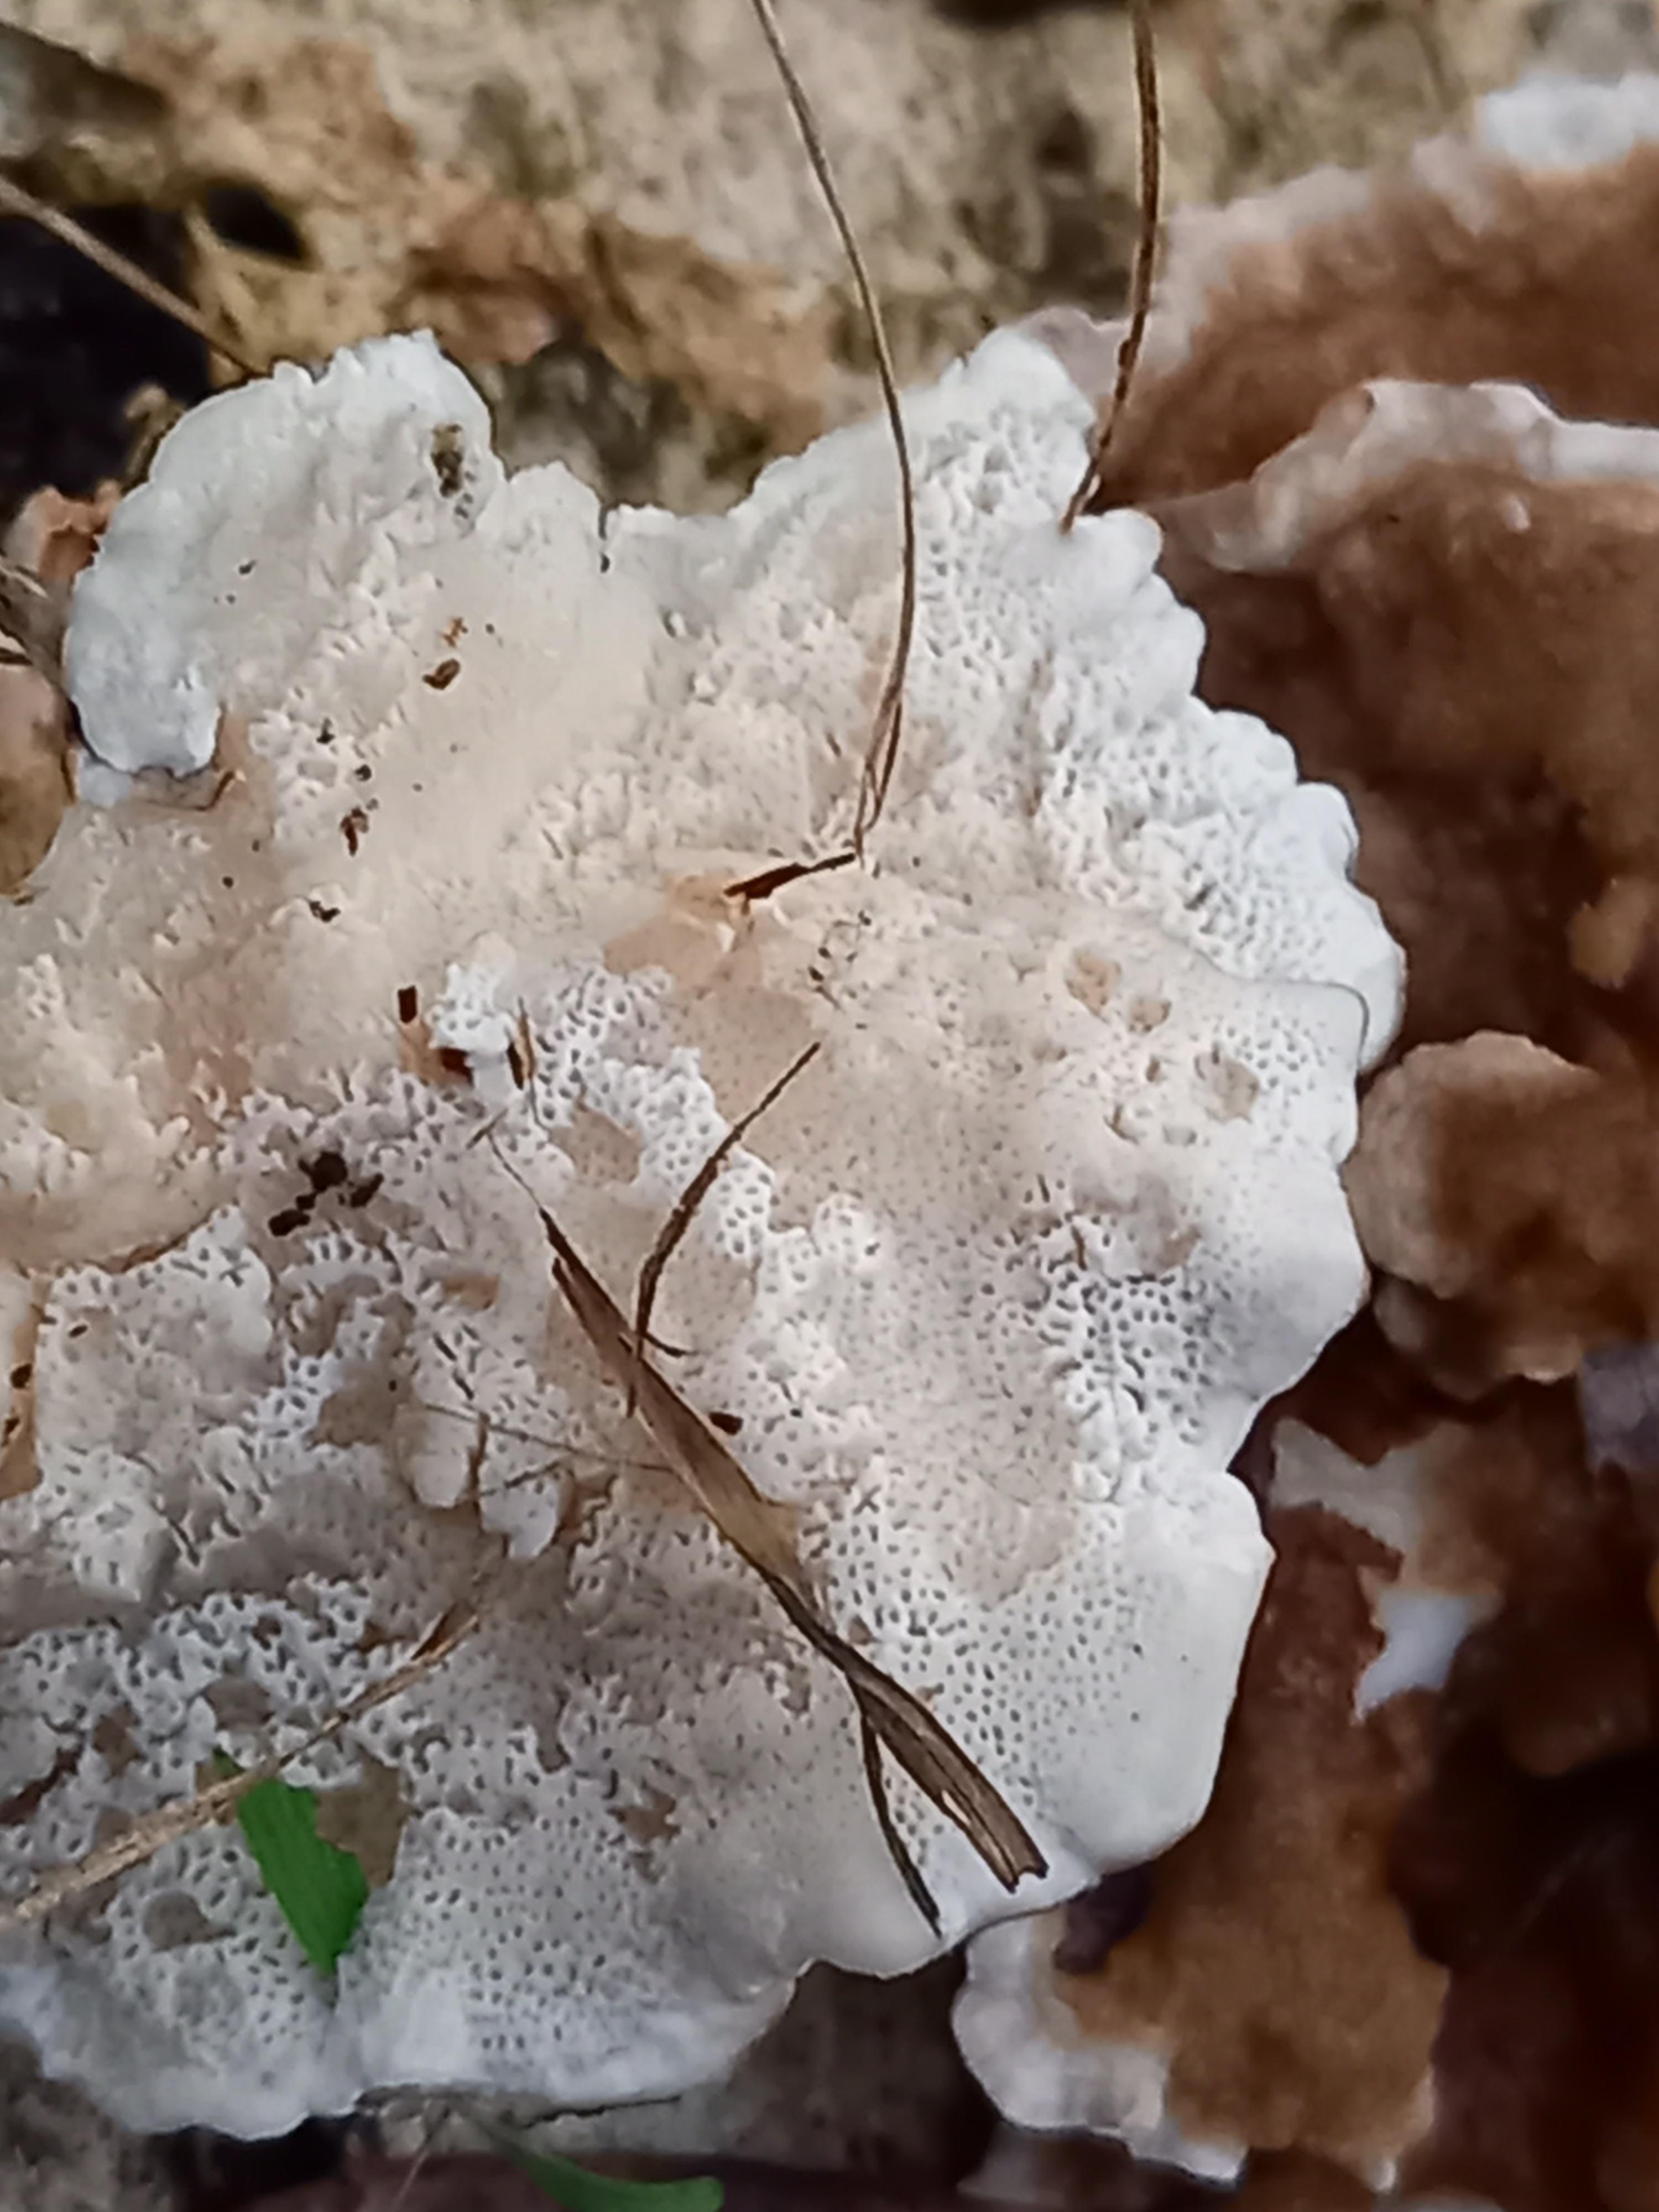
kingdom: Fungi
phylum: Basidiomycota
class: Agaricomycetes
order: Polyporales
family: Polyporaceae
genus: Trametes
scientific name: Trametes ochracea
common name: bæltet læderporesvamp
